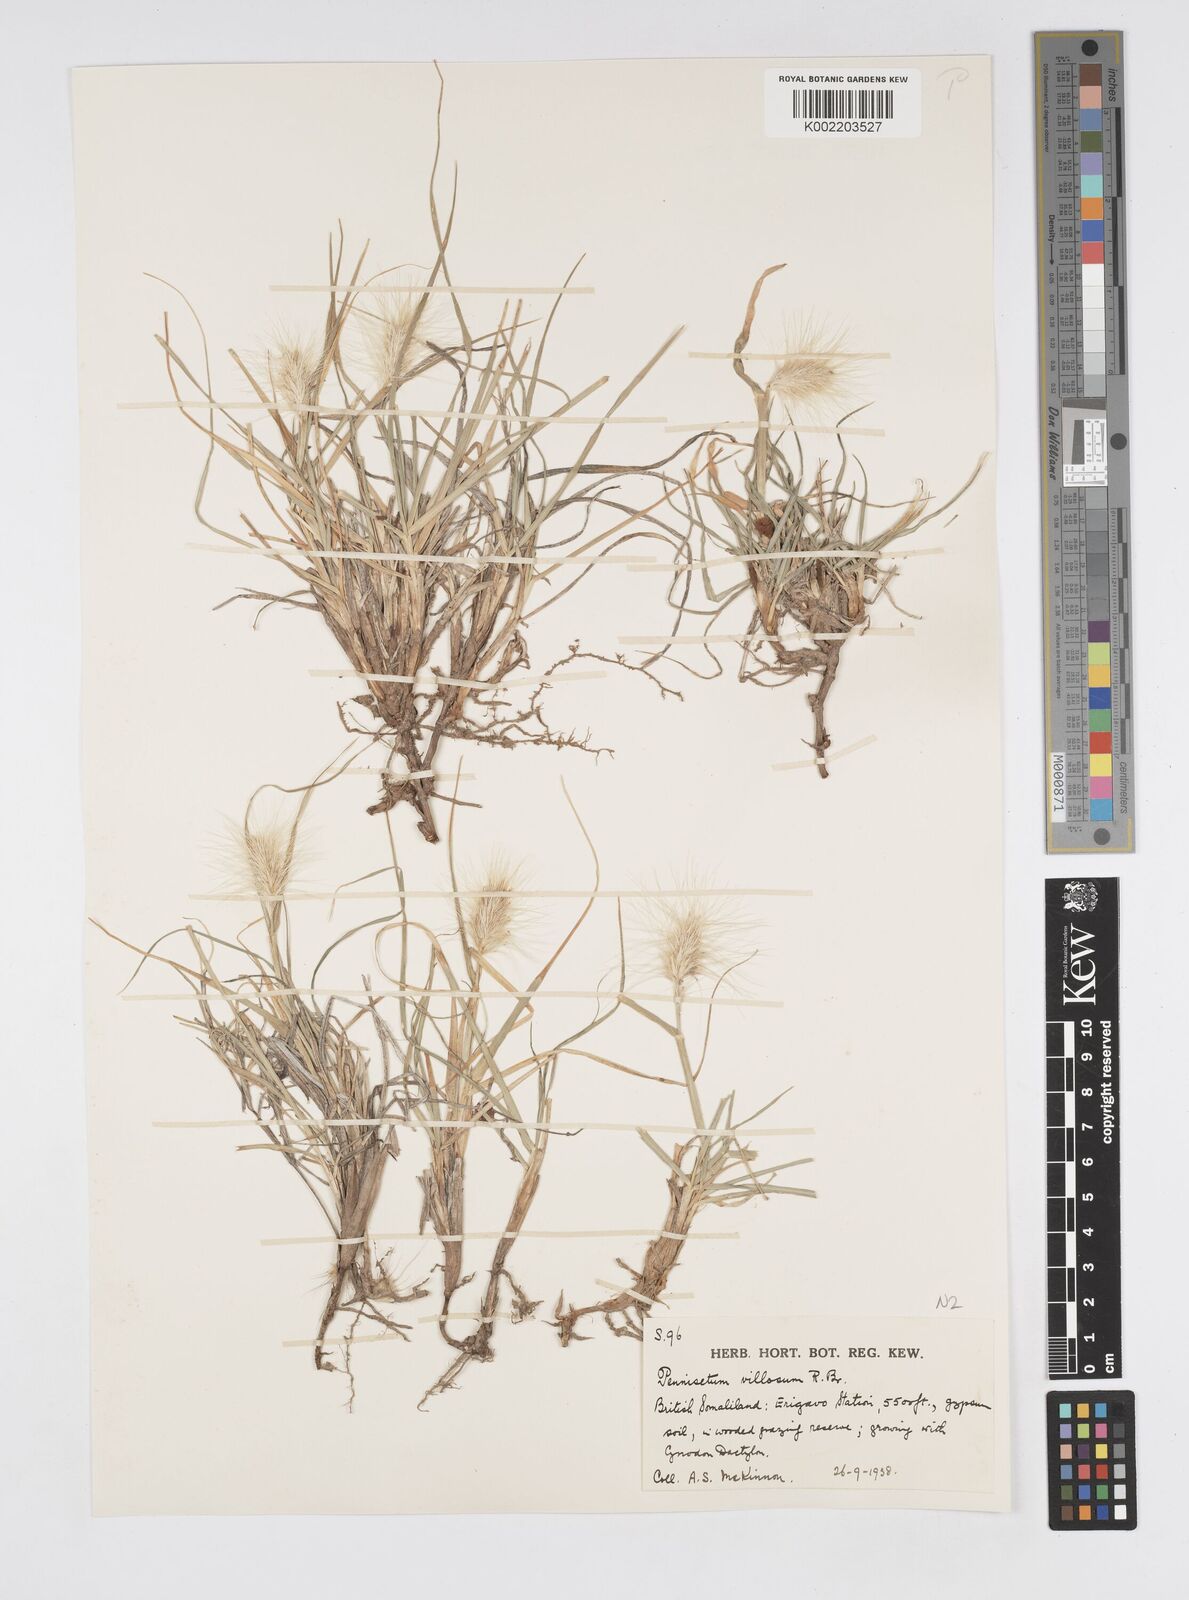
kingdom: Plantae
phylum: Tracheophyta
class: Liliopsida
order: Poales
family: Poaceae
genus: Cenchrus
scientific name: Cenchrus longisetus
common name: Feathertop
